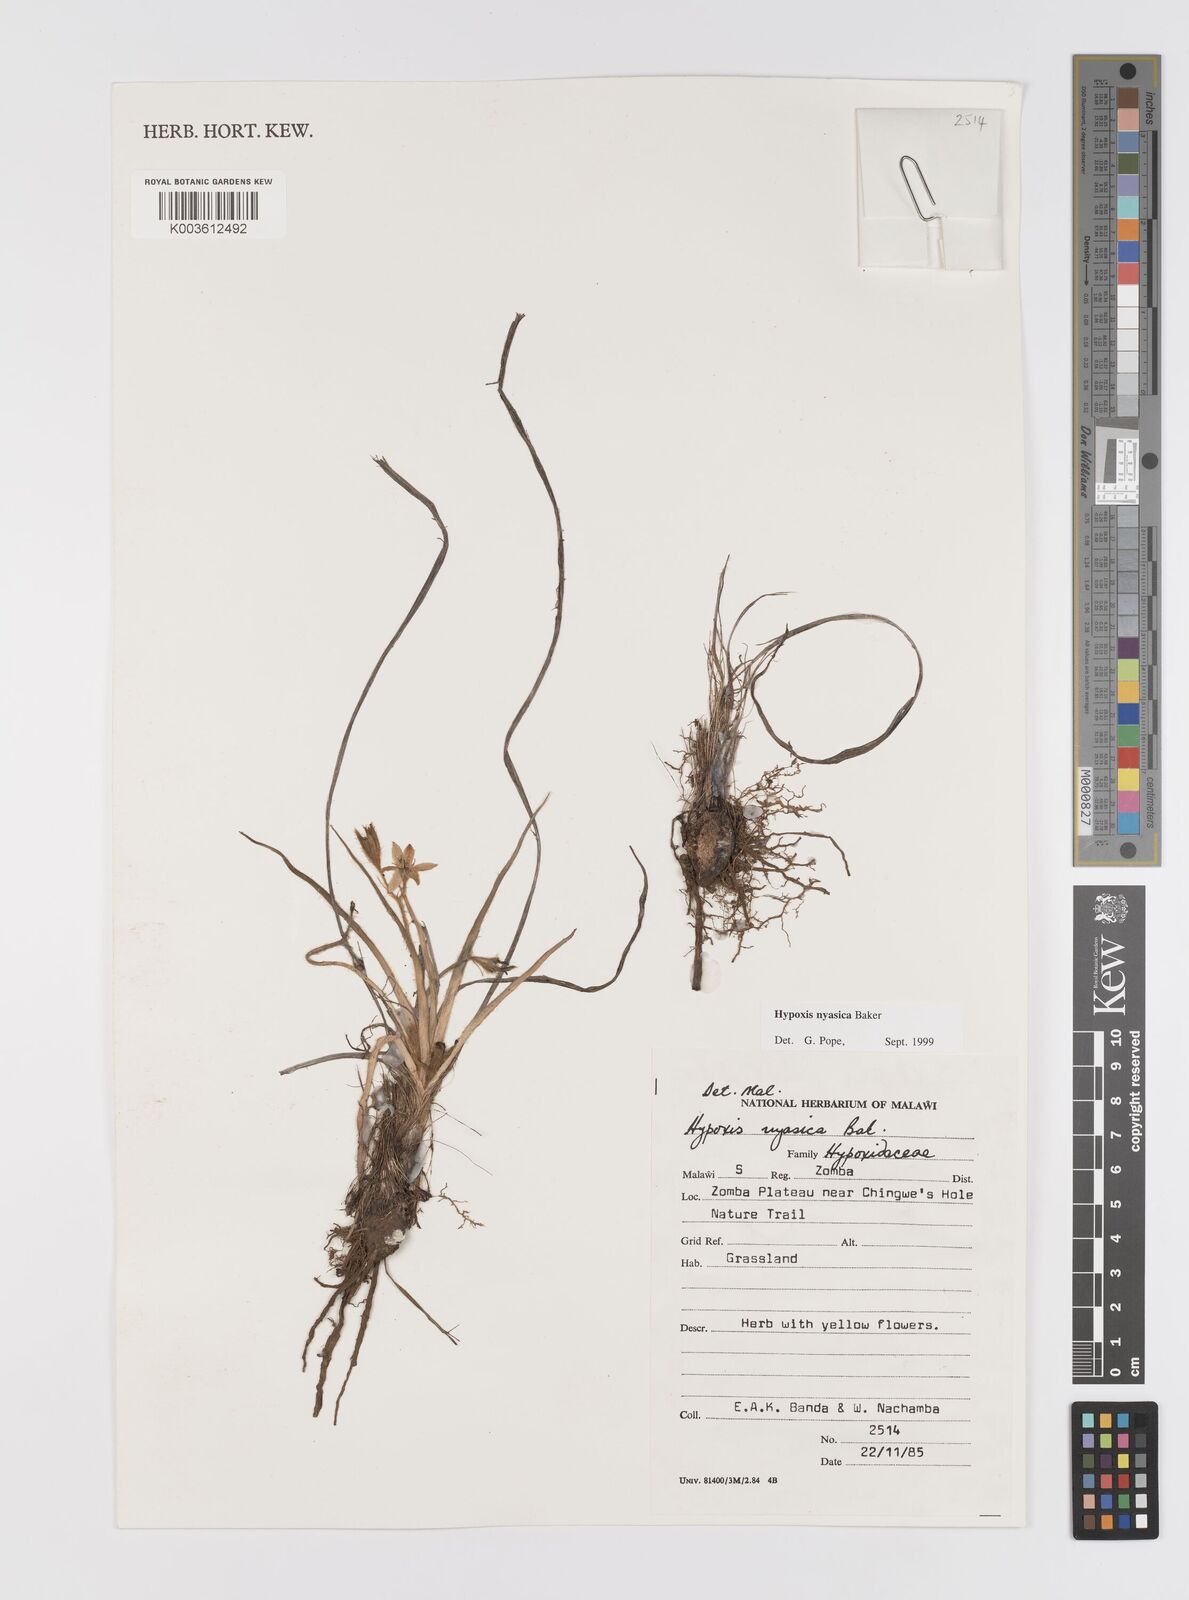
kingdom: Plantae
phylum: Tracheophyta
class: Liliopsida
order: Asparagales
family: Hypoxidaceae
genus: Hypoxis
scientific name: Hypoxis nyasica
